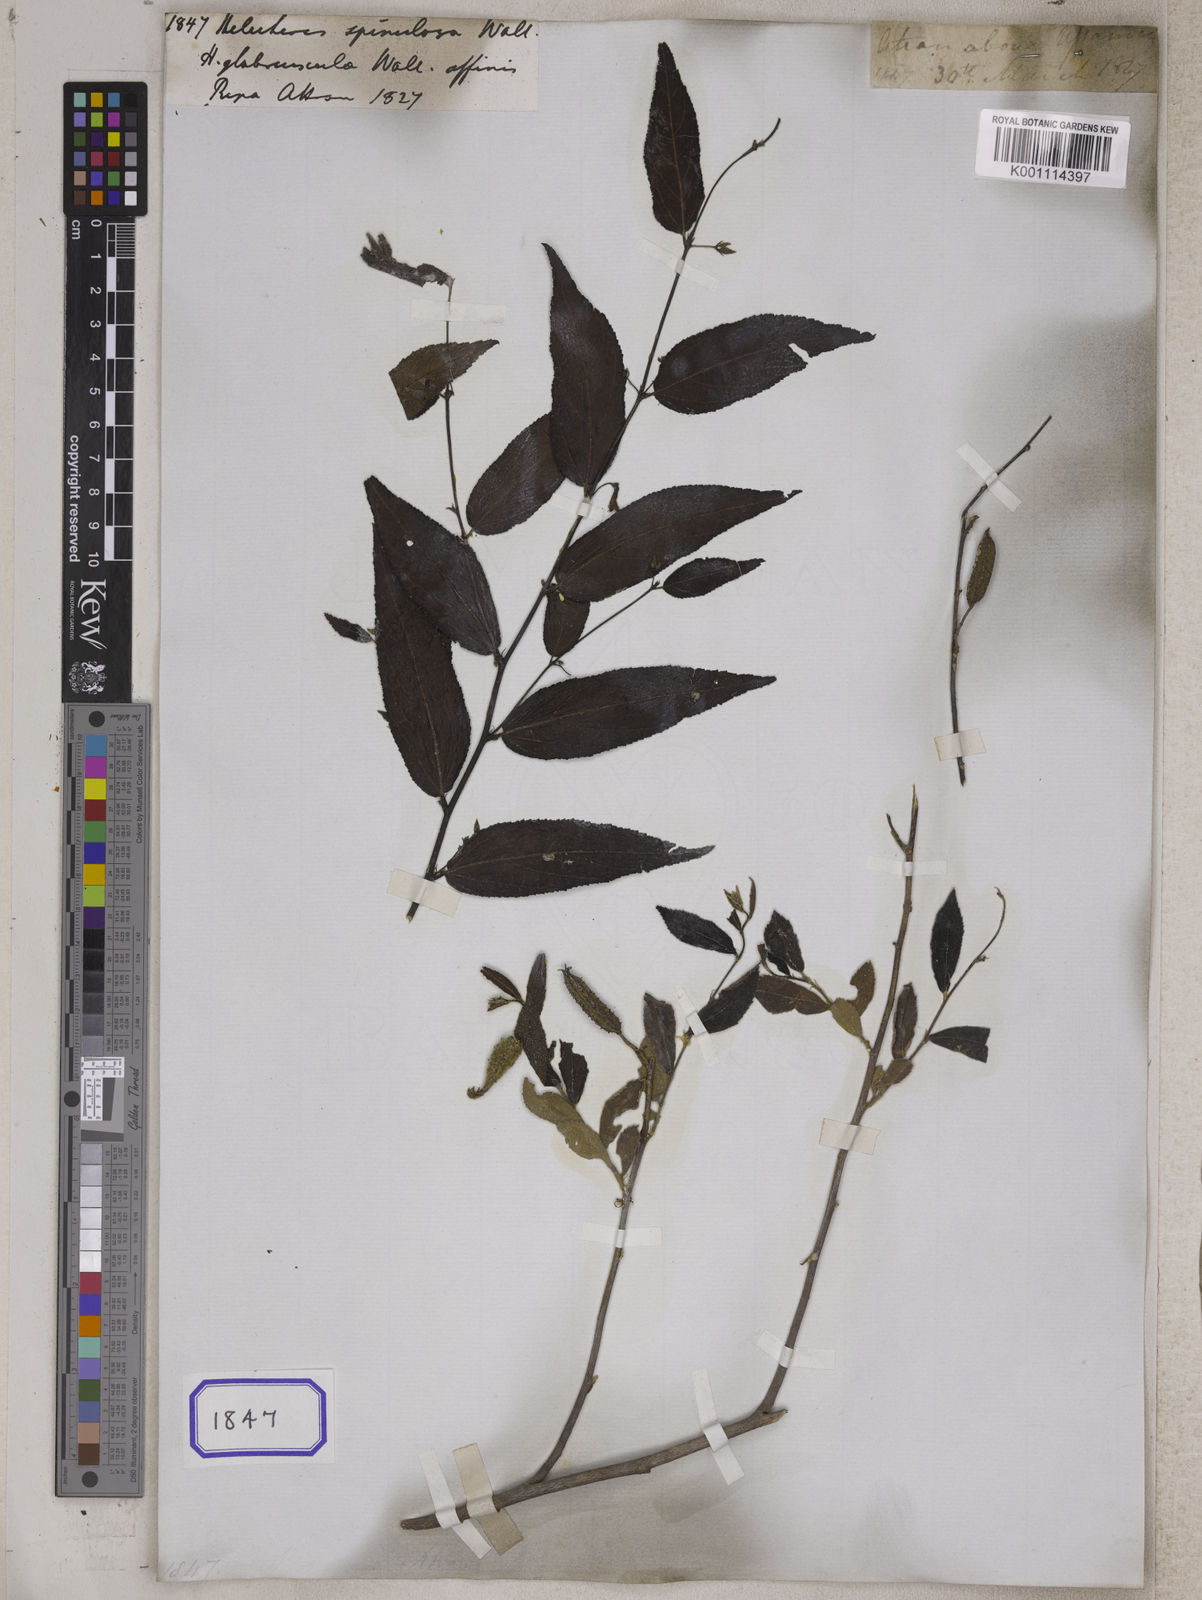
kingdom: Plantae
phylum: Tracheophyta
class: Magnoliopsida
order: Malvales
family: Malvaceae
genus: Helicteres
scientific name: Helicteres plebeia
